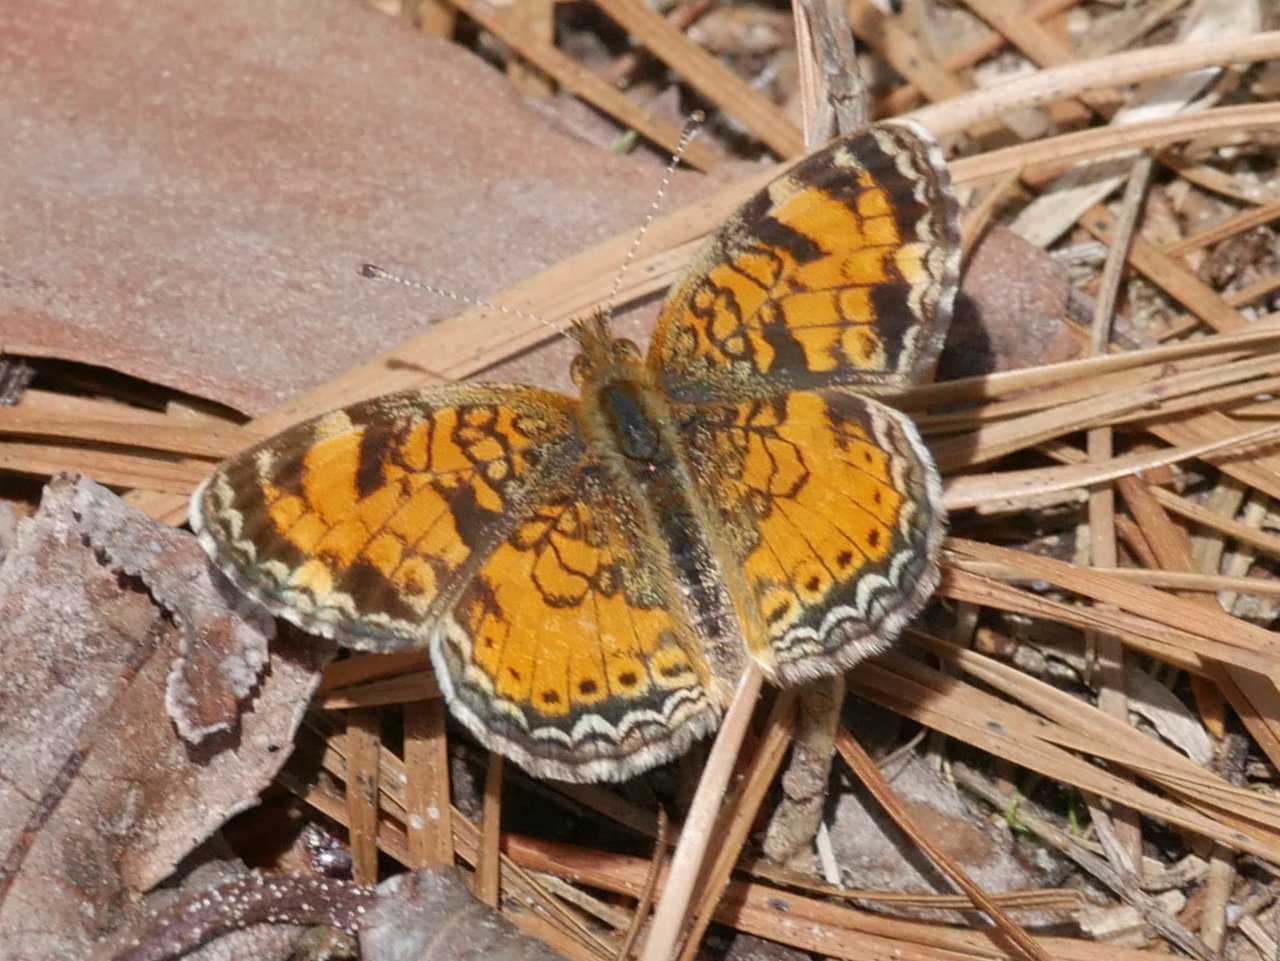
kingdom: Animalia
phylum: Arthropoda
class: Insecta
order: Lepidoptera
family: Nymphalidae
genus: Phyciodes
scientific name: Phyciodes tharos
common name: Pearl Crescent
